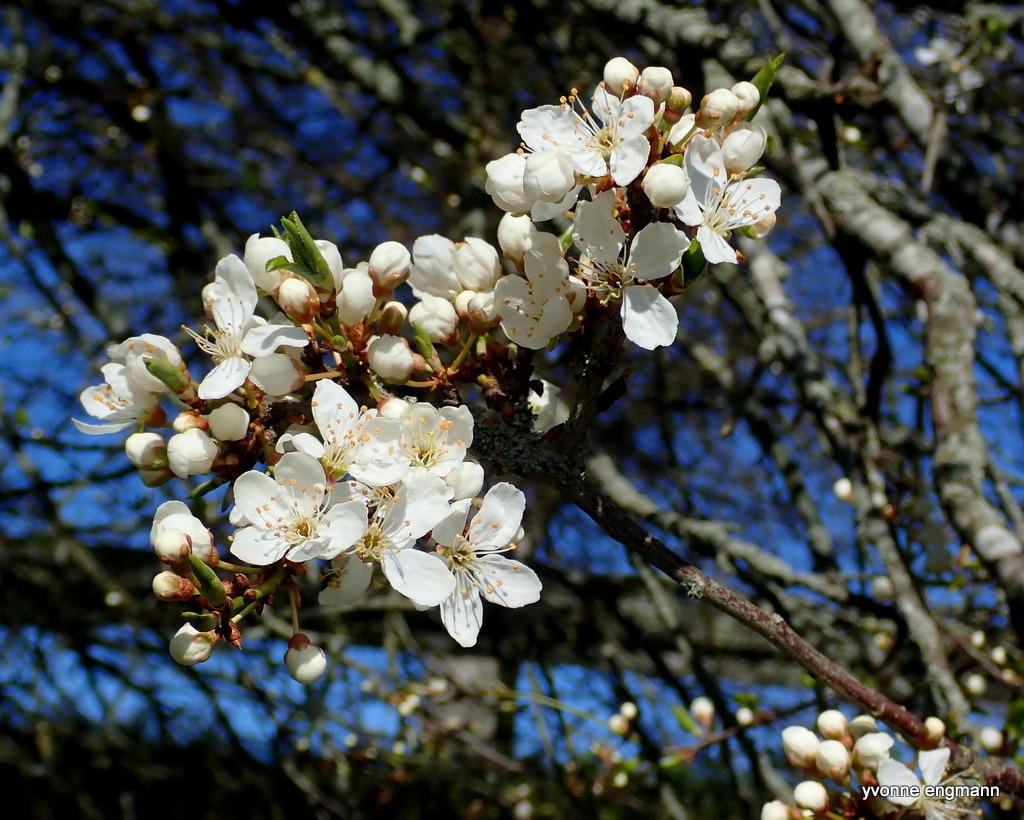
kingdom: Plantae
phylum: Tracheophyta
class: Magnoliopsida
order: Rosales
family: Rosaceae
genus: Prunus
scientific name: Prunus cerasifera
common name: Mirabel
